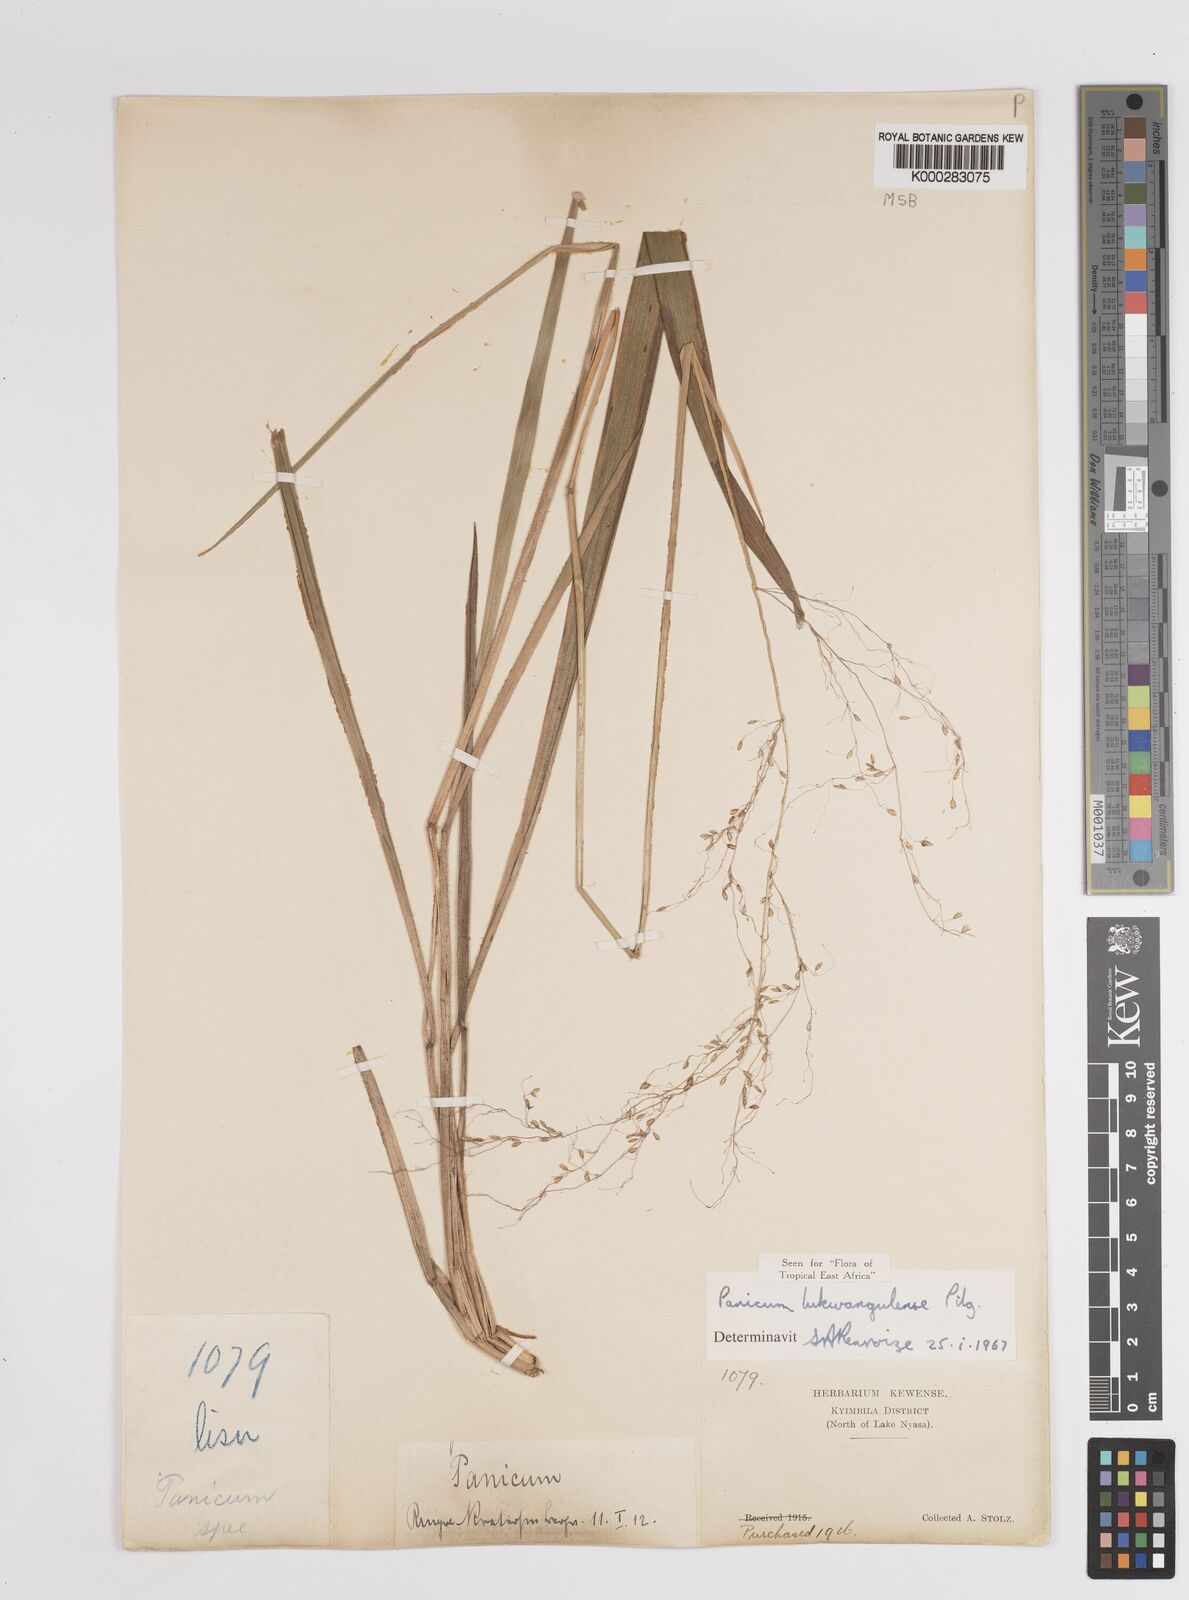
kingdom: Plantae
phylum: Tracheophyta
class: Liliopsida
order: Poales
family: Poaceae
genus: Adenochloa
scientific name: Adenochloa lukwangulense
